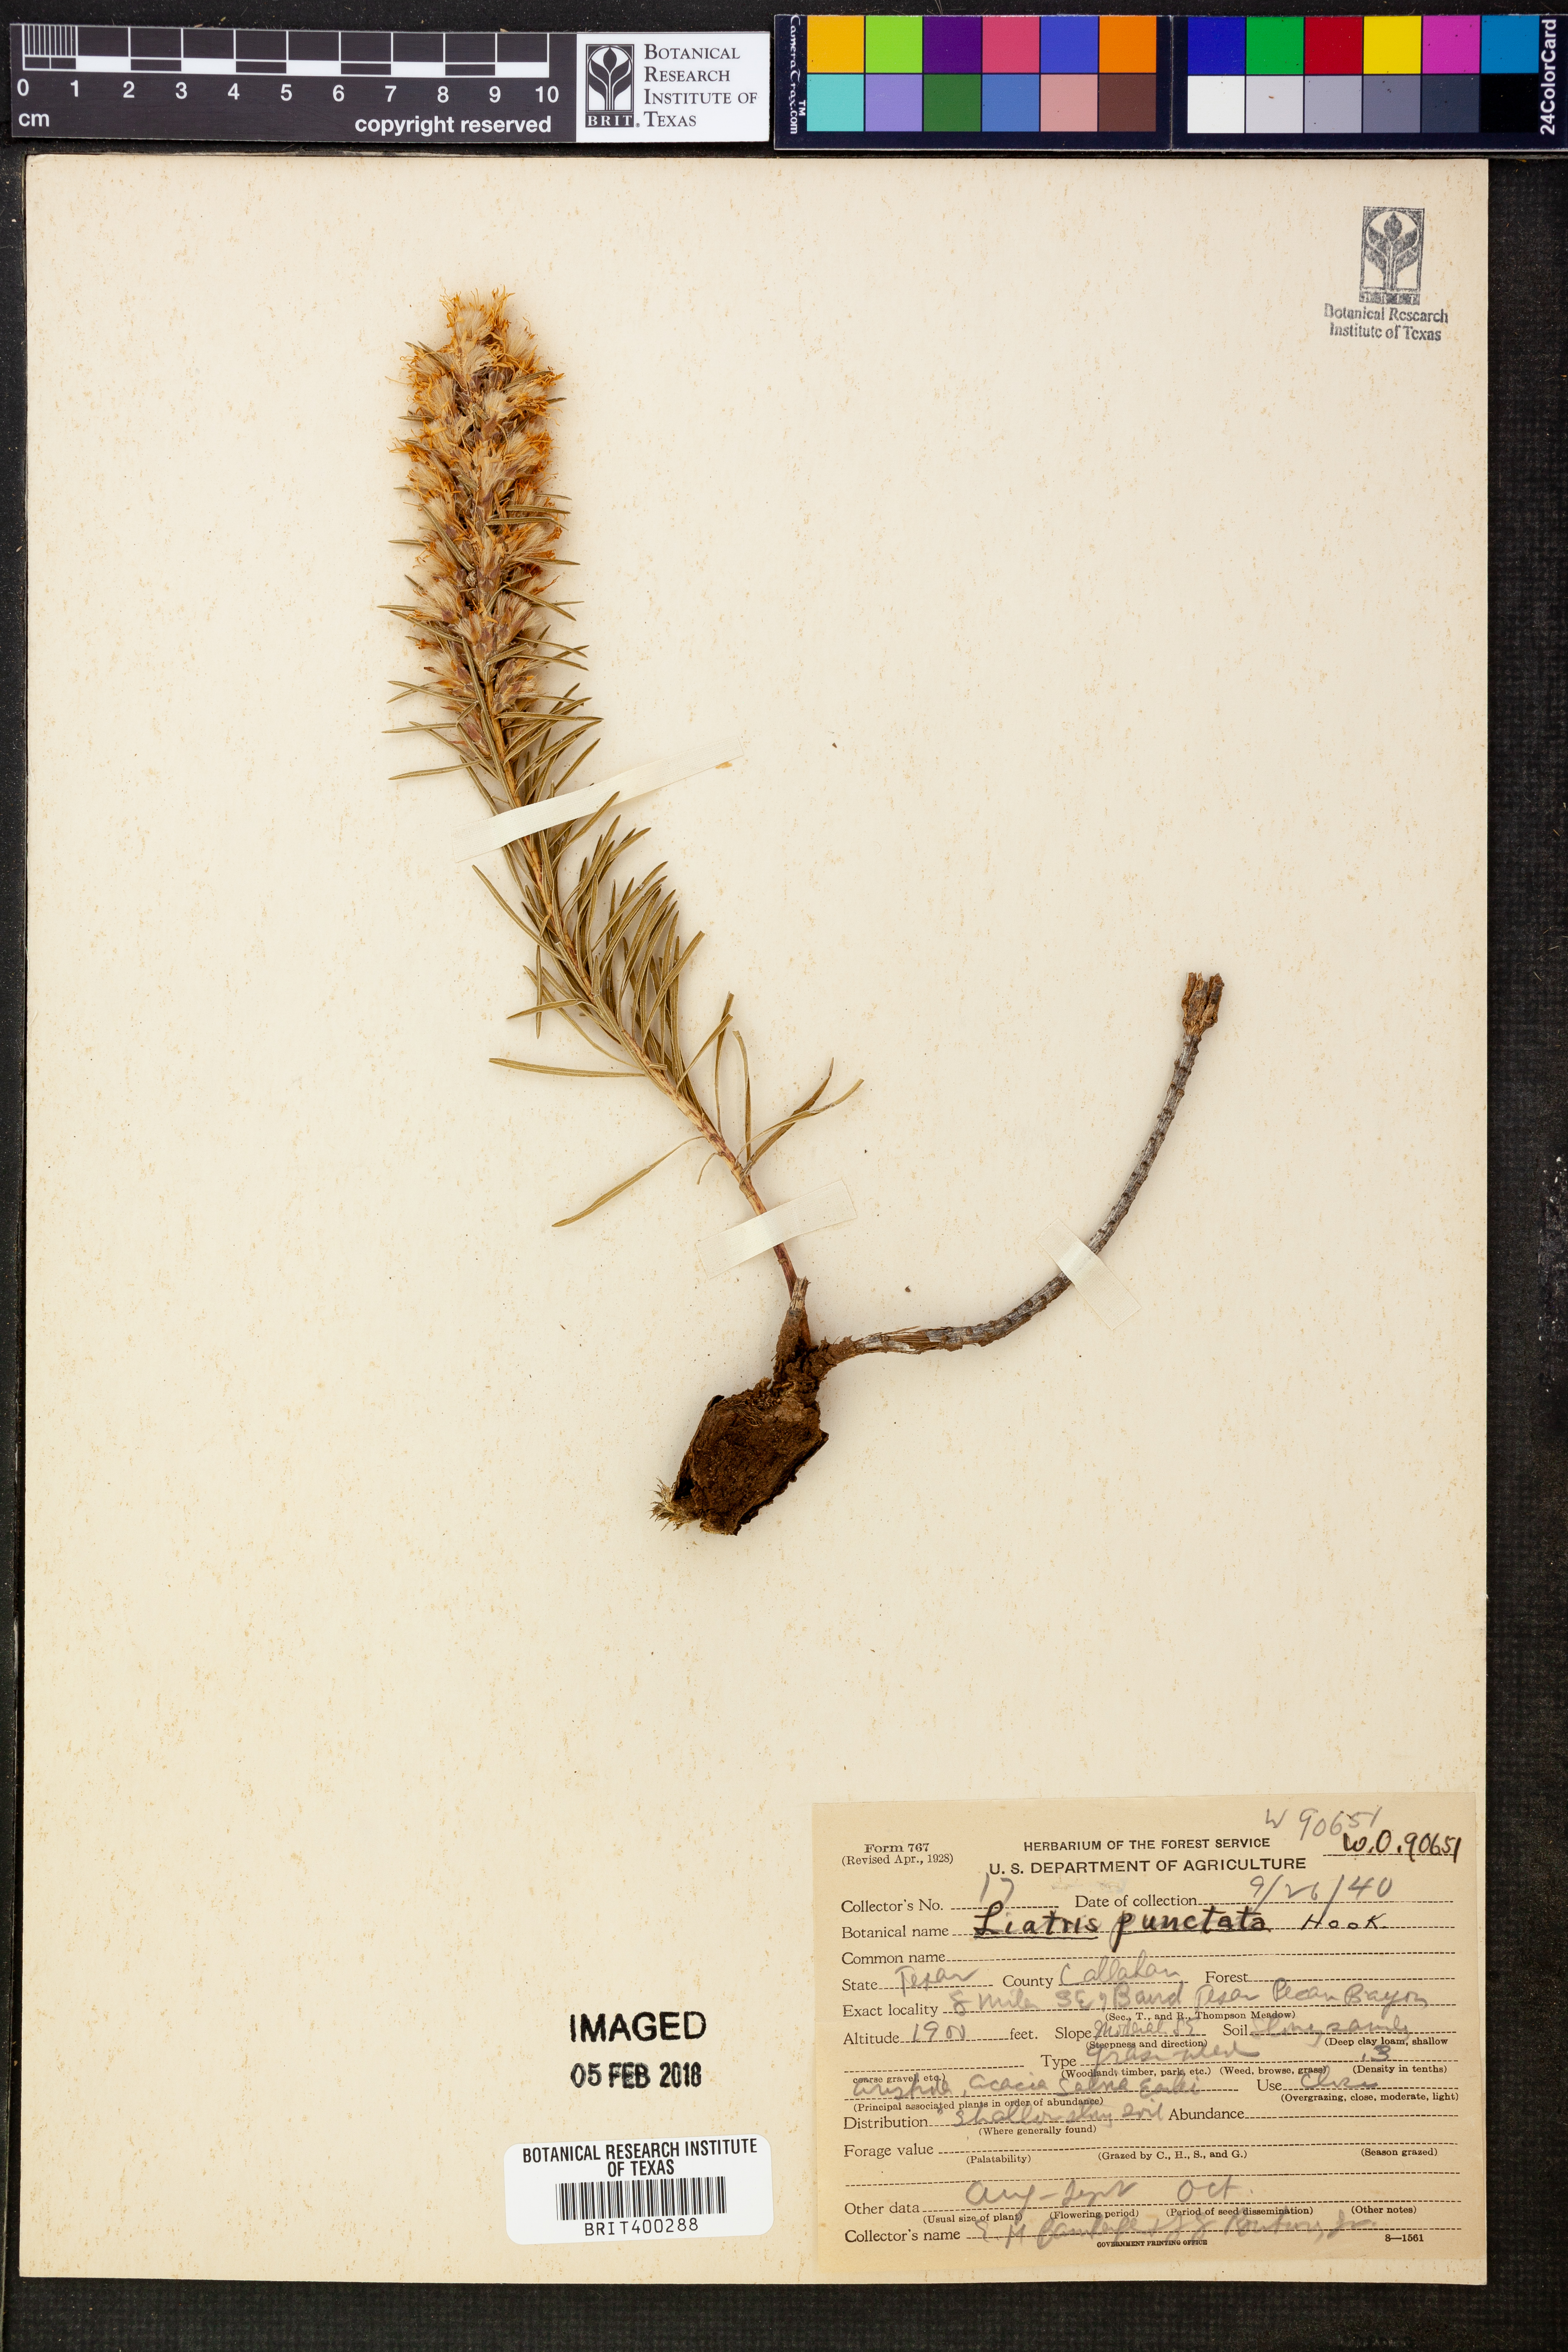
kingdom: Plantae
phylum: Tracheophyta
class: Magnoliopsida
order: Asterales
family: Asteraceae
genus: Liatris
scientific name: Liatris punctata
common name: Dotted gayfeather
